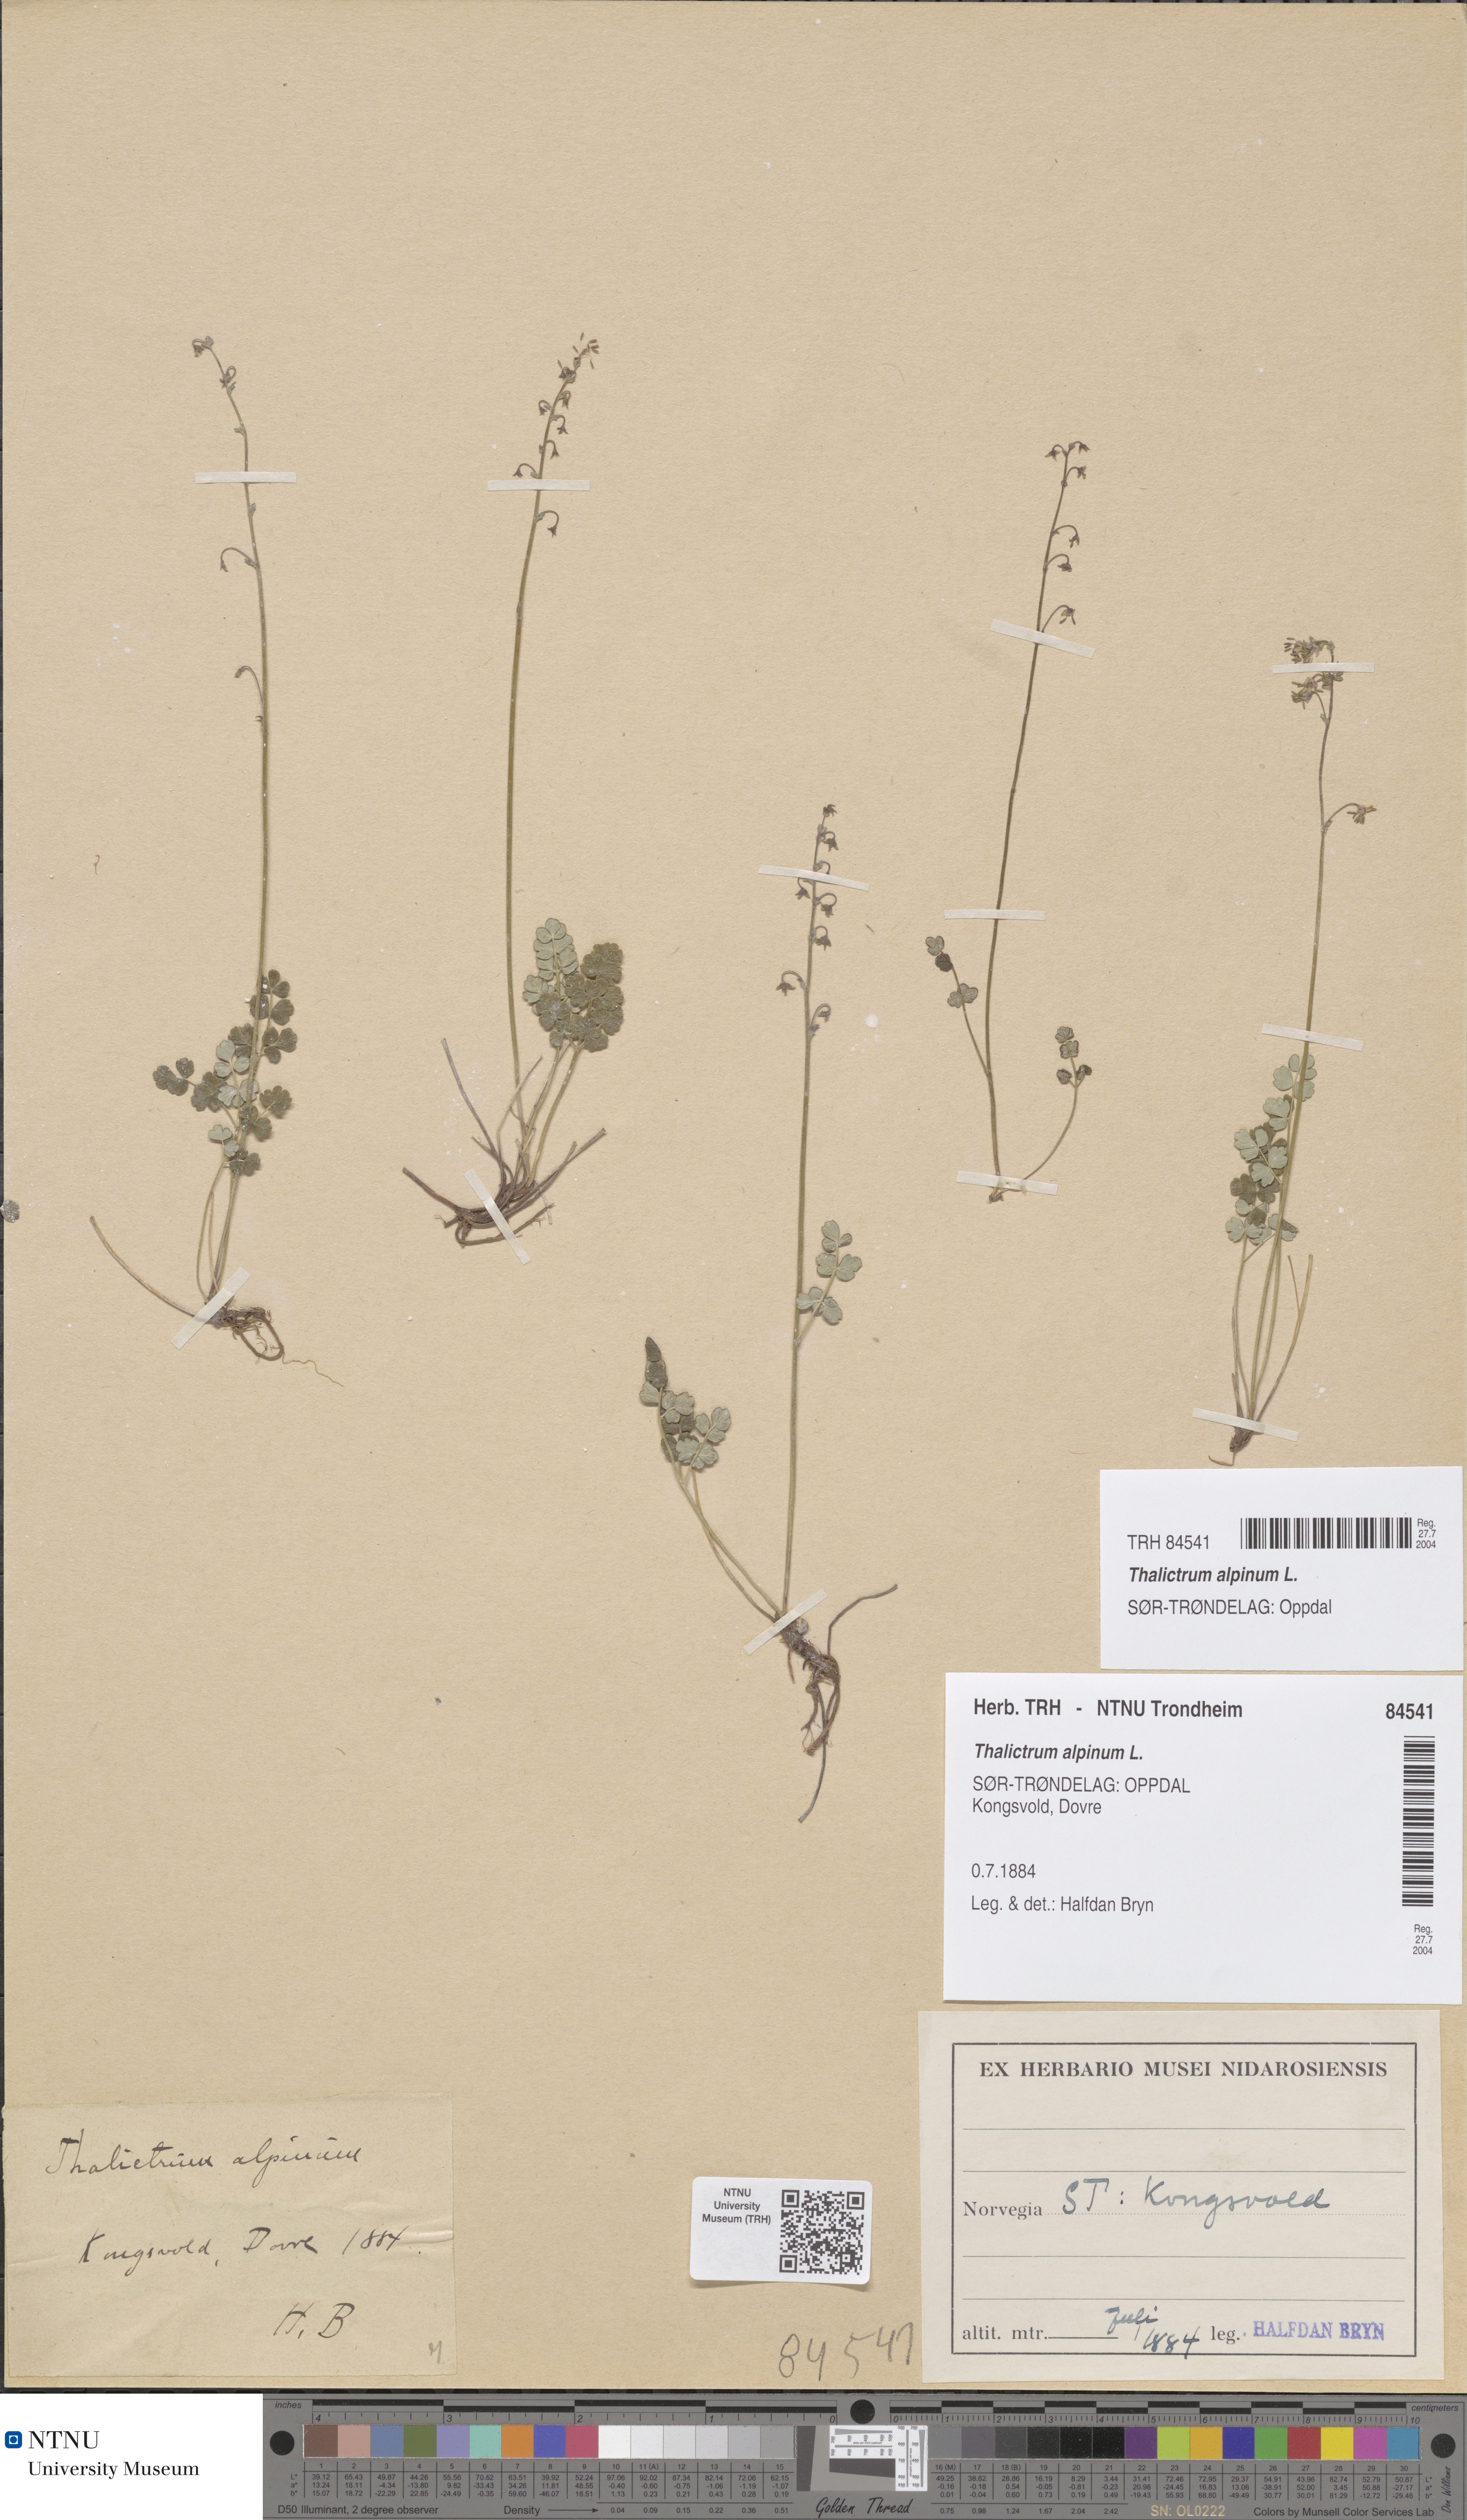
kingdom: Plantae
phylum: Tracheophyta
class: Magnoliopsida
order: Ranunculales
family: Ranunculaceae
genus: Thalictrum
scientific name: Thalictrum alpinum
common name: Alpine meadow-rue
